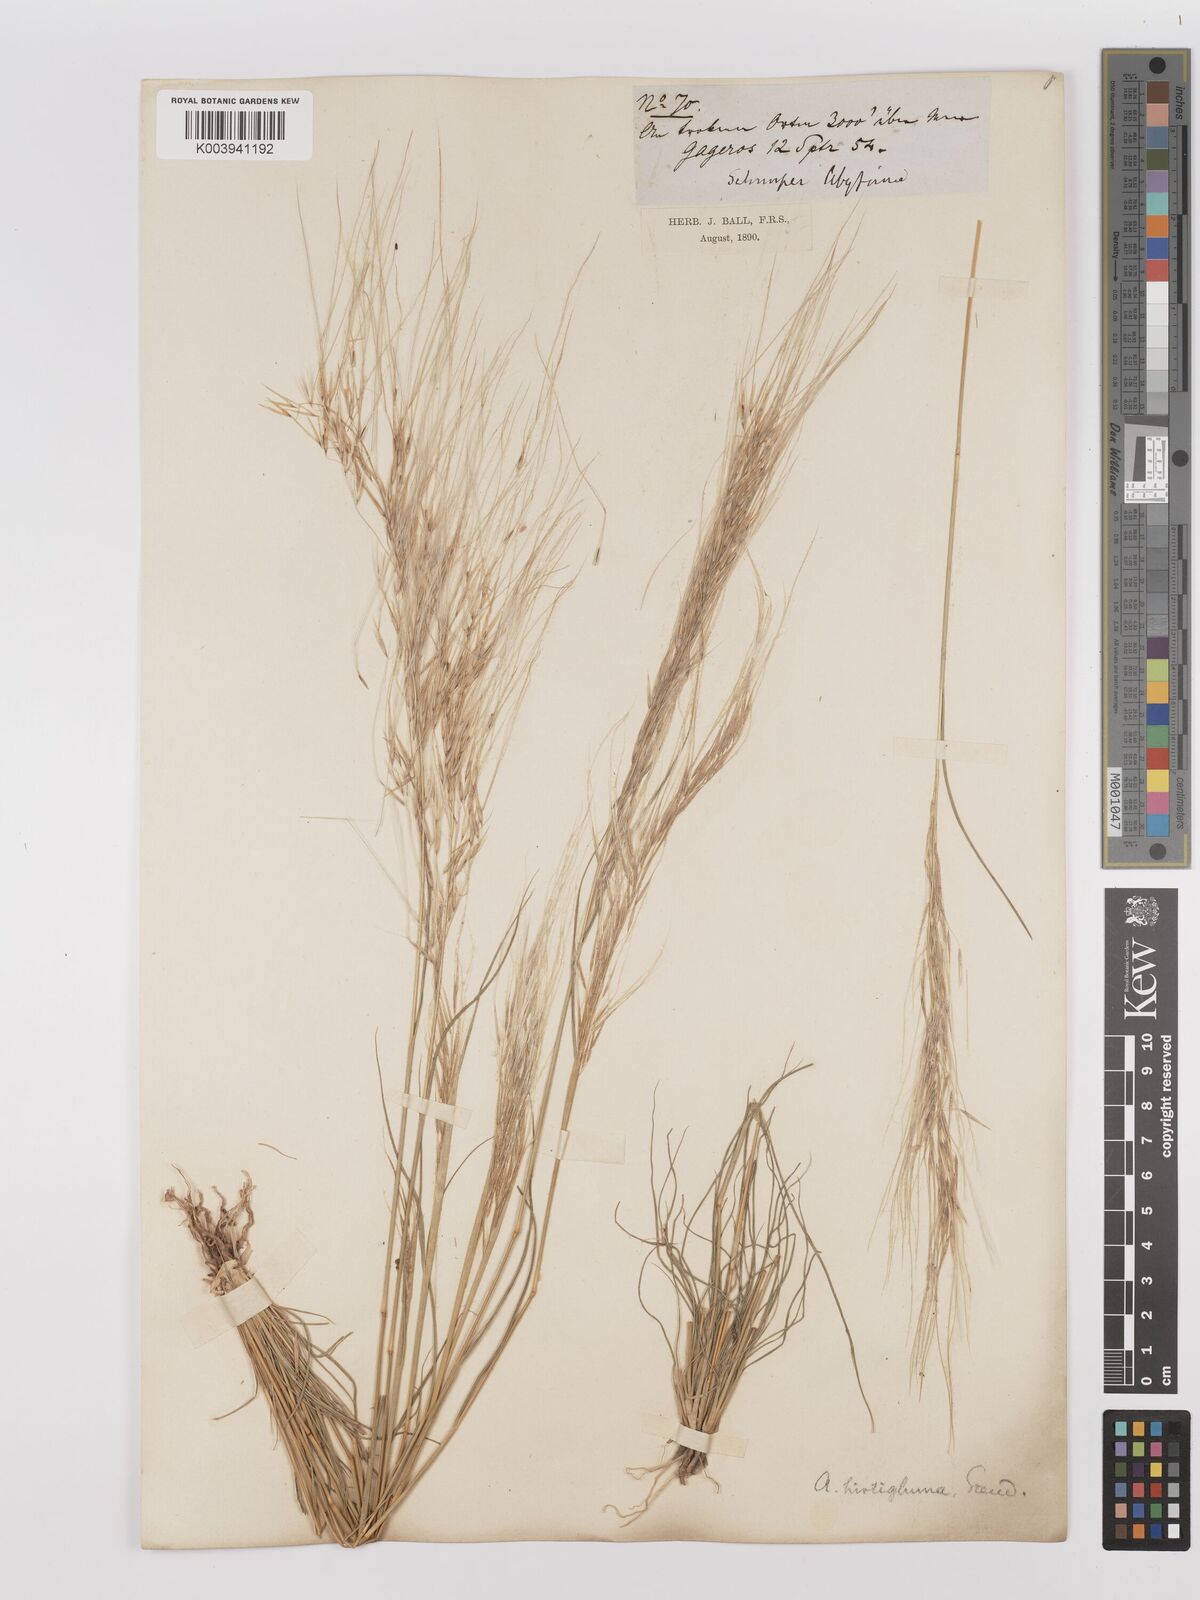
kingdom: Plantae
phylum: Tracheophyta
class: Liliopsida
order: Poales
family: Poaceae
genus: Stipagrostis
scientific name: Stipagrostis hirtigluma
